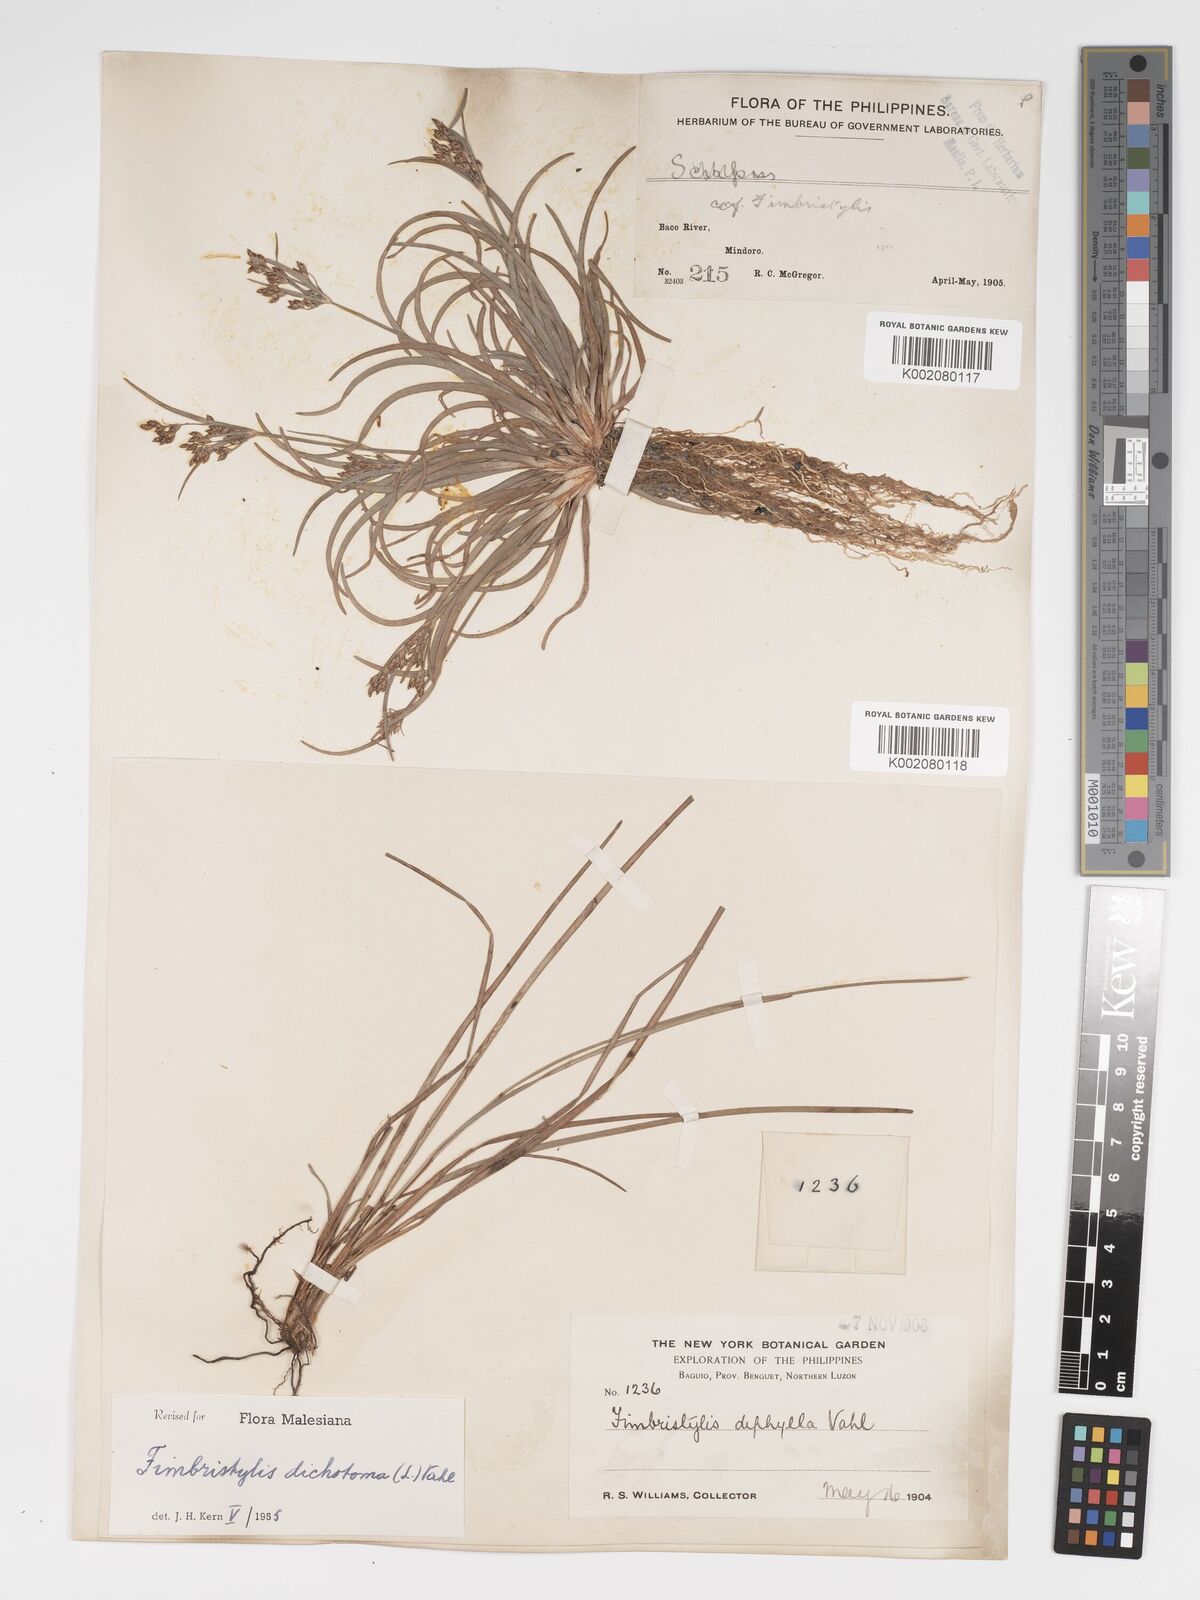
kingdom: Plantae
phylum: Tracheophyta
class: Liliopsida
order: Poales
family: Cyperaceae
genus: Fimbristylis
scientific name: Fimbristylis dichotoma
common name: Forked fimbry
